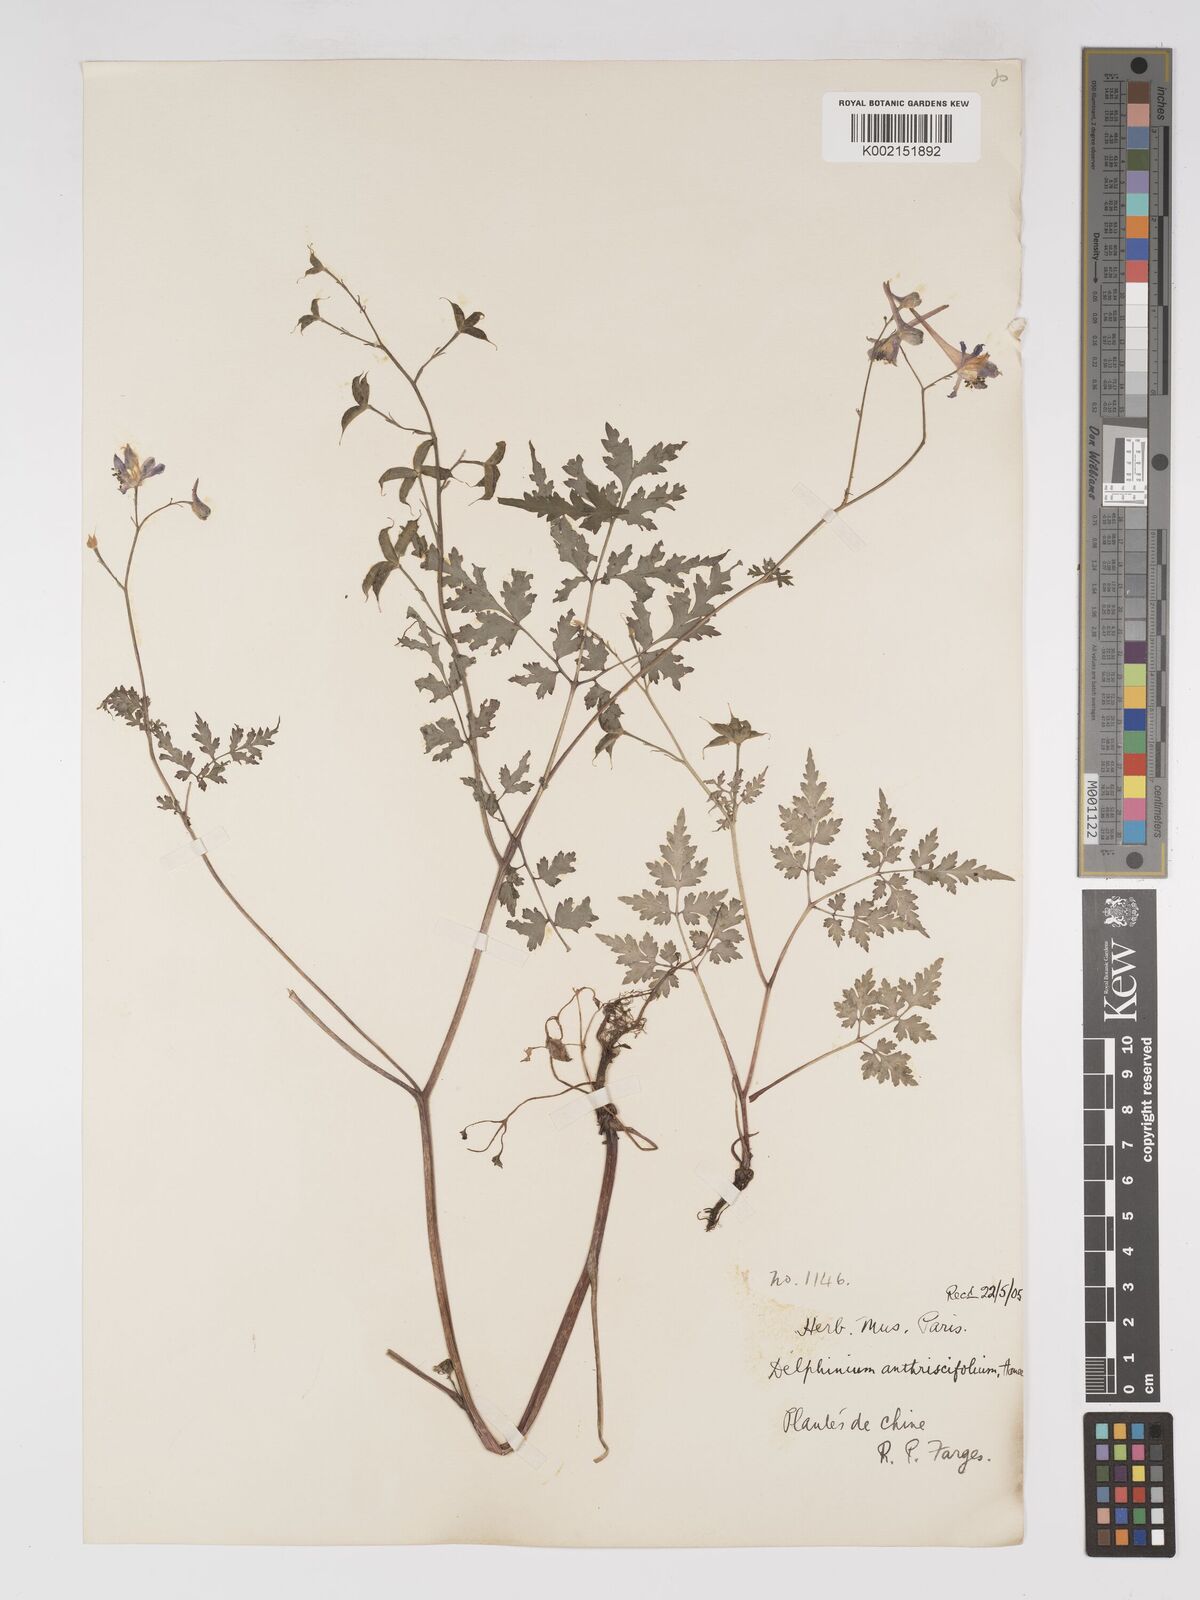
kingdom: Plantae
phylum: Tracheophyta
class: Magnoliopsida
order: Ranunculales
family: Ranunculaceae
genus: Delphinium
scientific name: Delphinium anthriscifolium
